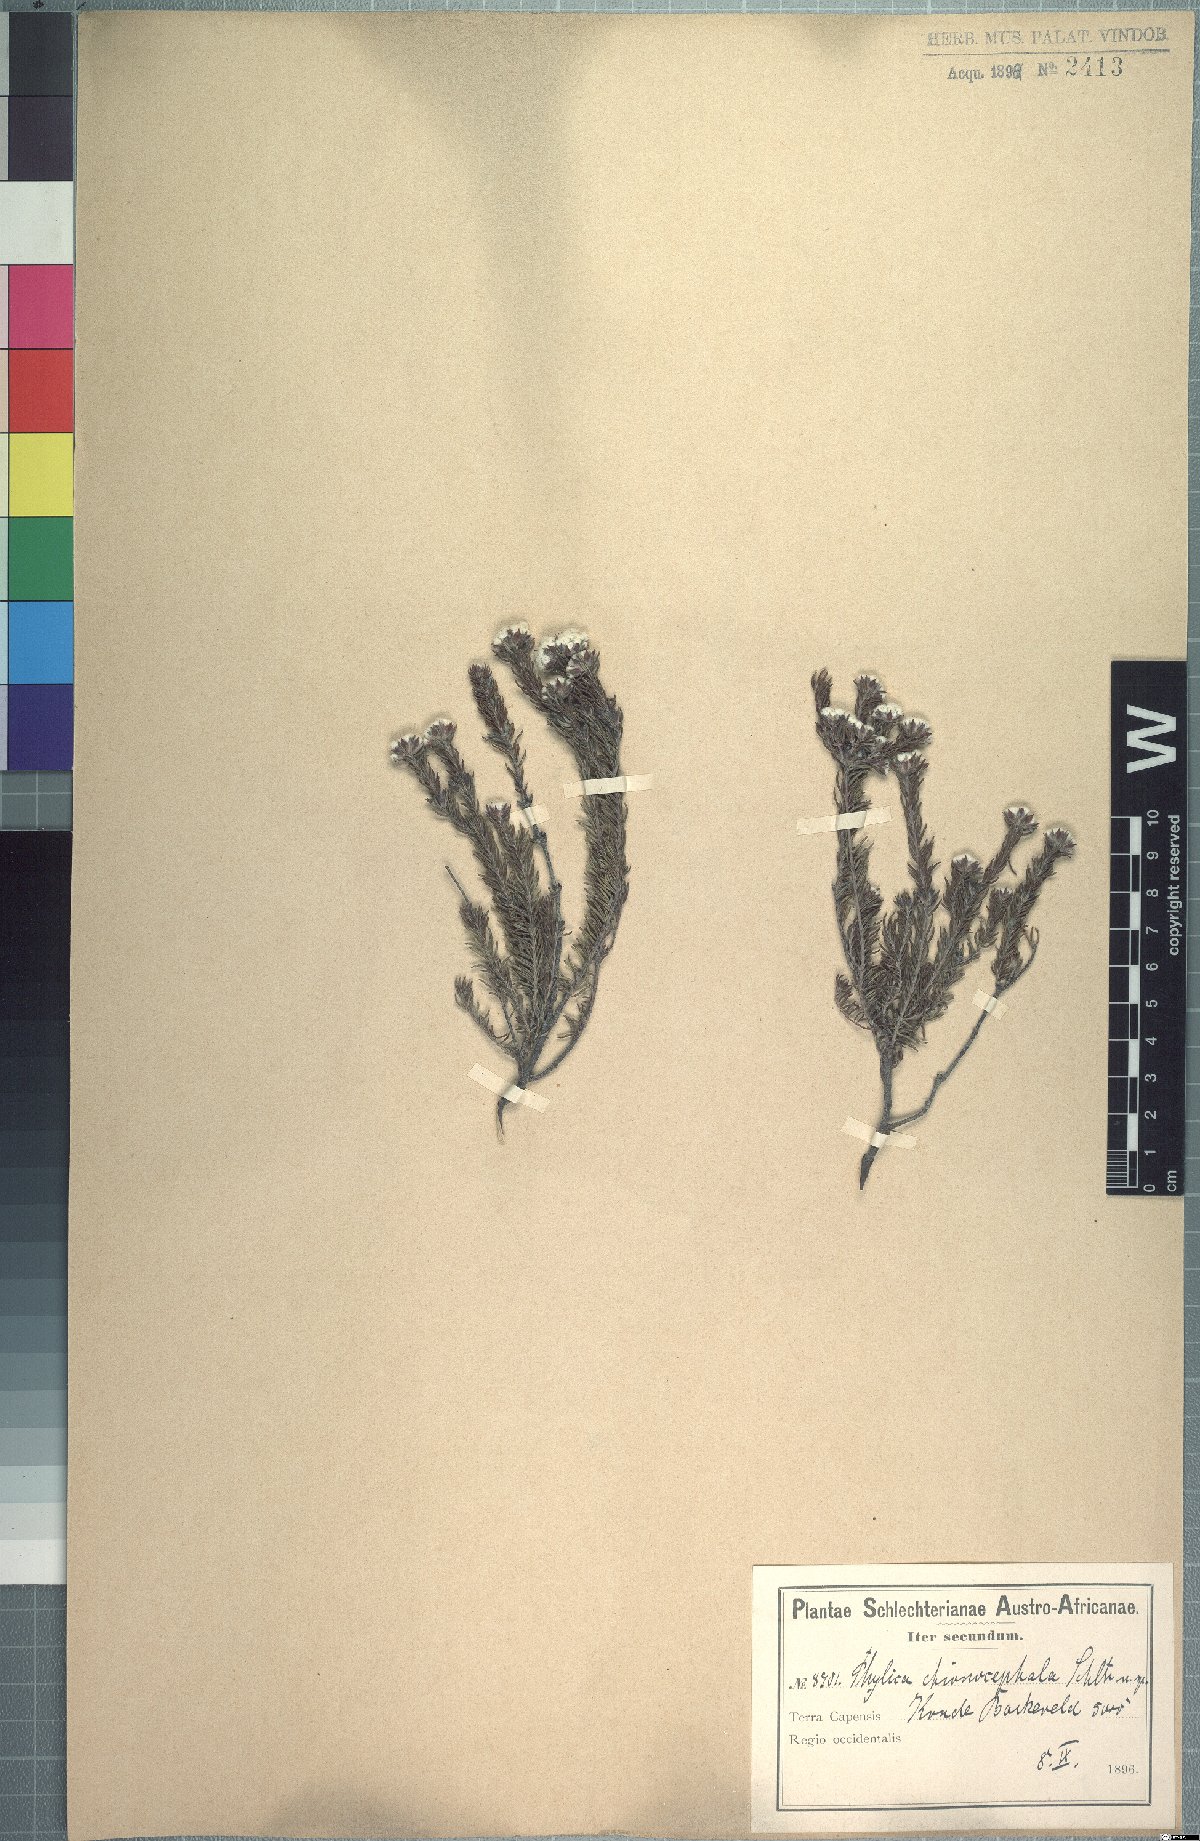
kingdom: Plantae
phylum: Tracheophyta
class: Magnoliopsida
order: Rosales
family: Rhamnaceae
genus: Phylica
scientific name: Phylica chionocephala
